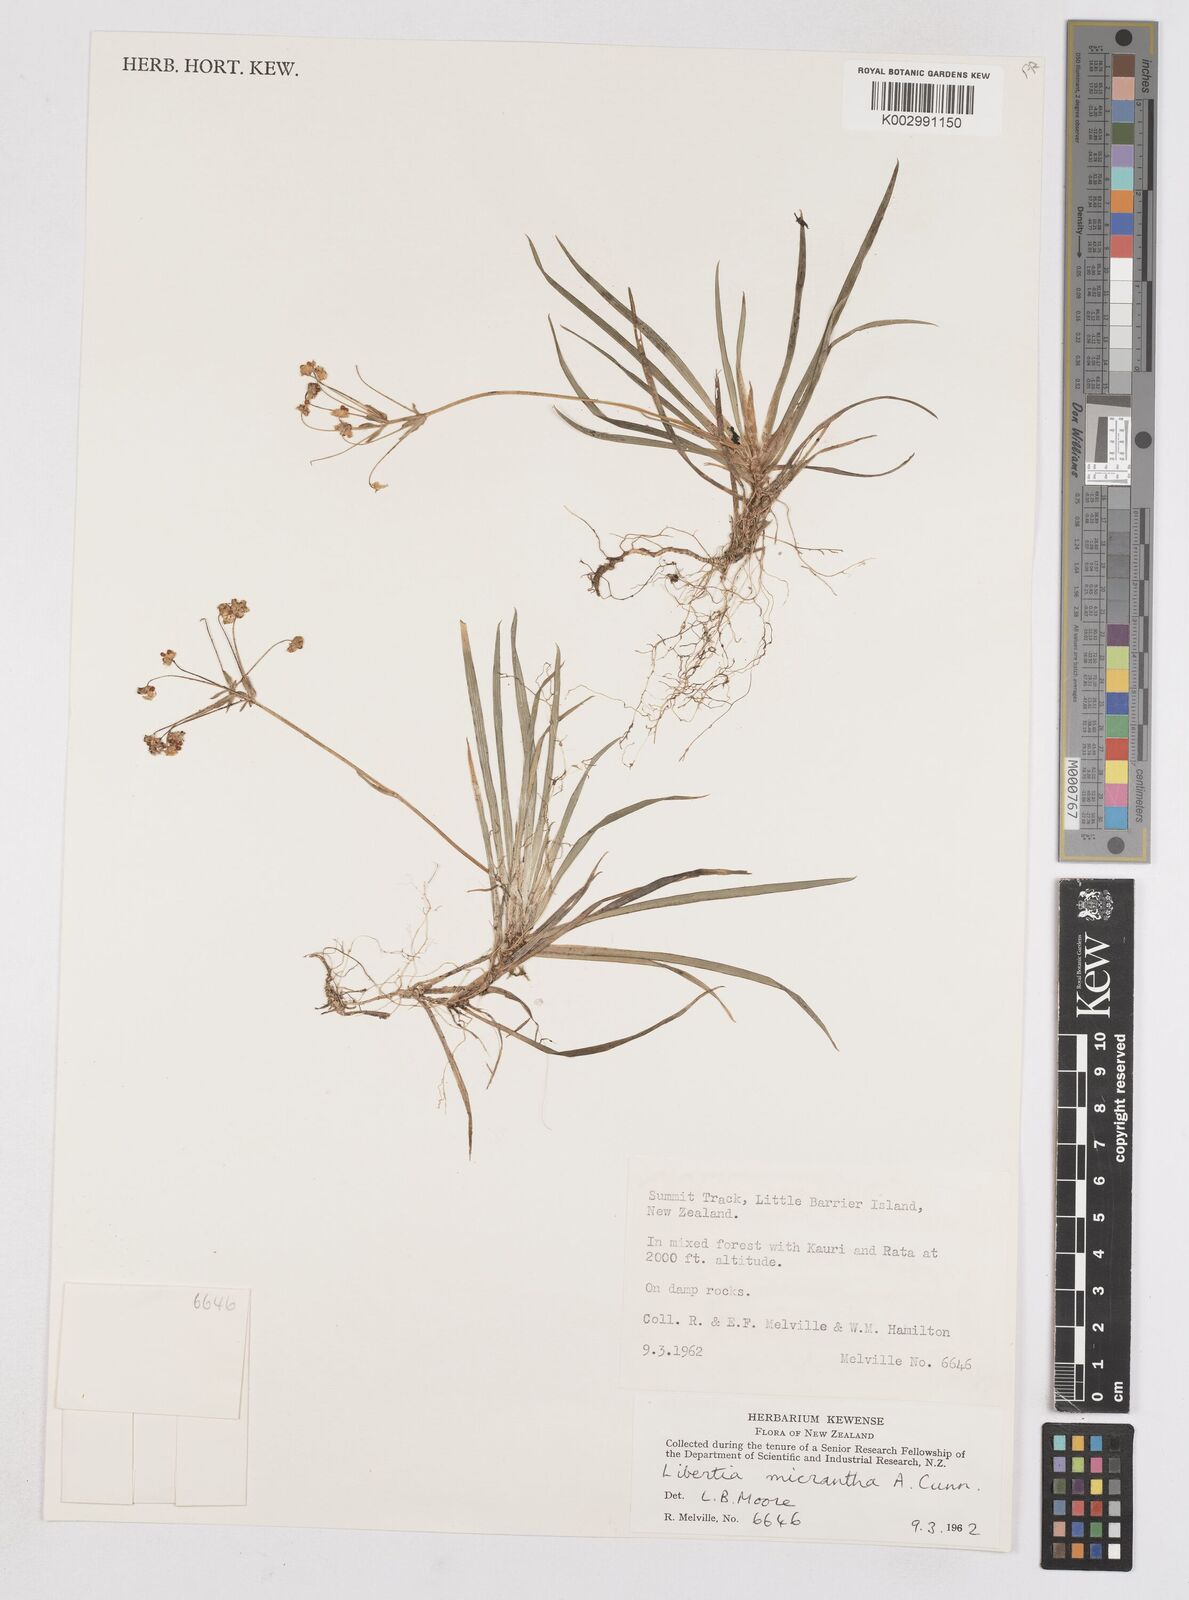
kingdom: Plantae
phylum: Tracheophyta
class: Liliopsida
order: Asparagales
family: Iridaceae
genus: Libertia
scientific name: Libertia pulchella
